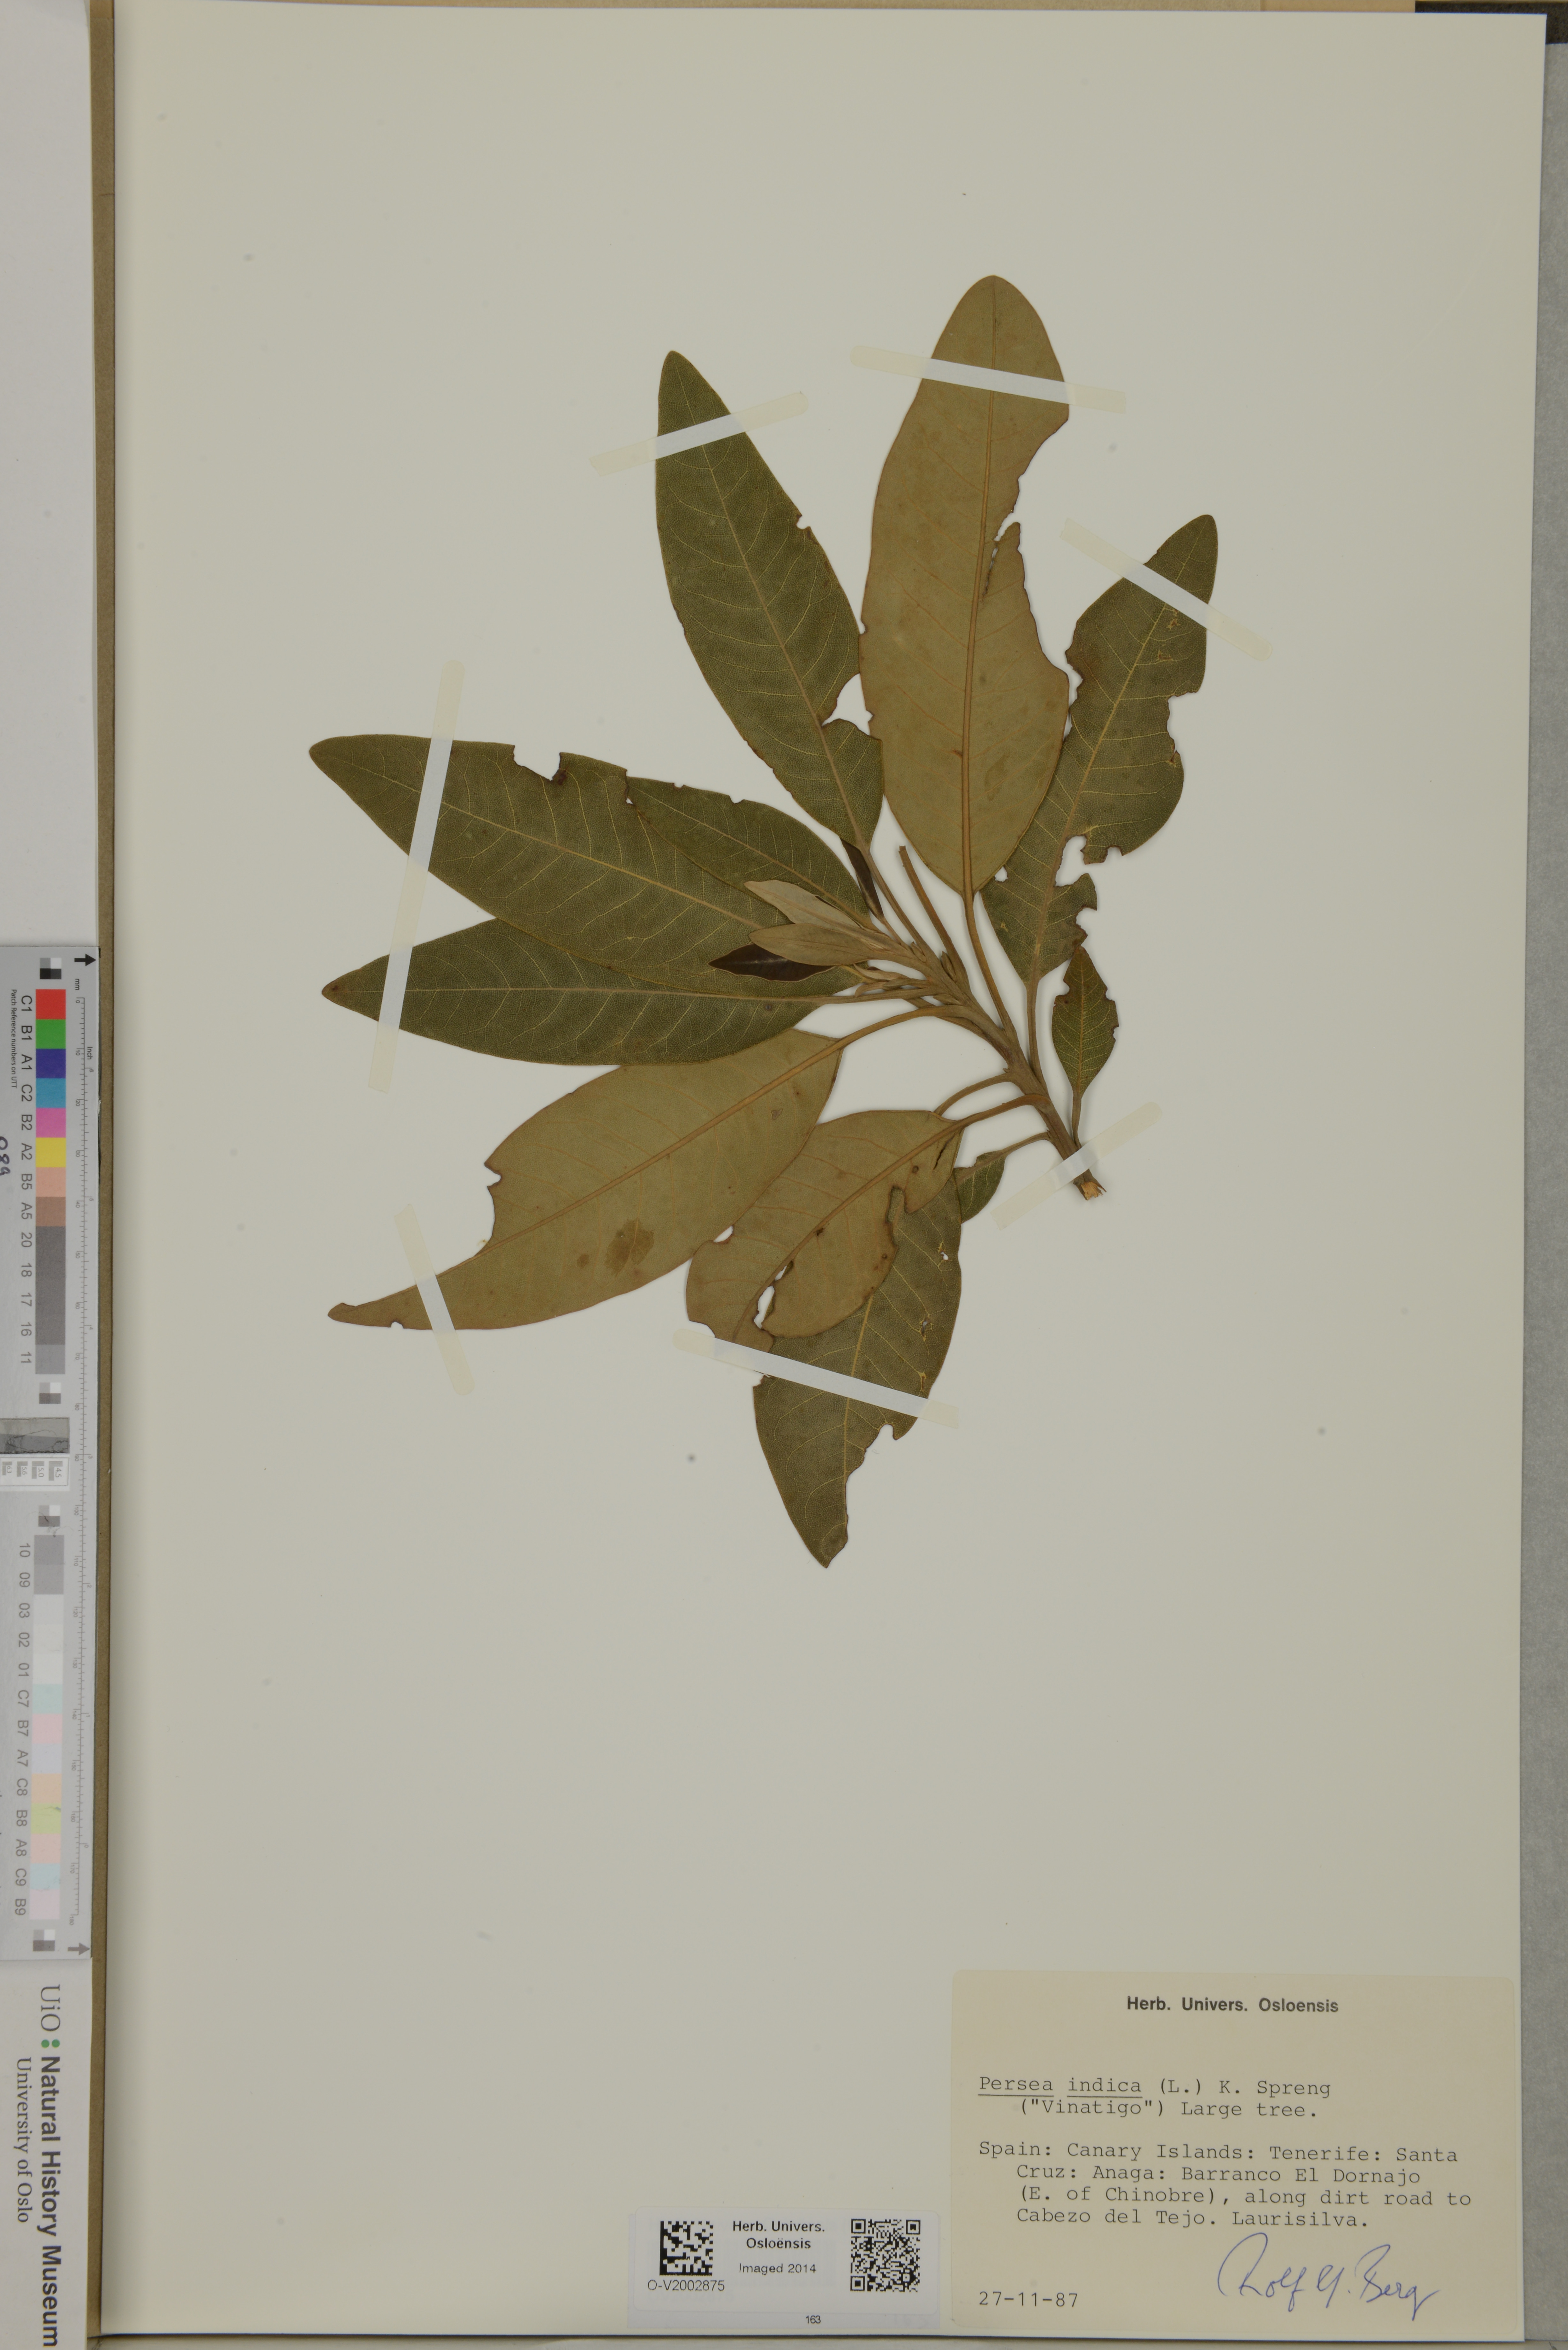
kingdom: Plantae
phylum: Tracheophyta
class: Magnoliopsida
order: Laurales
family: Lauraceae
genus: Persea
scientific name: Persea indica
